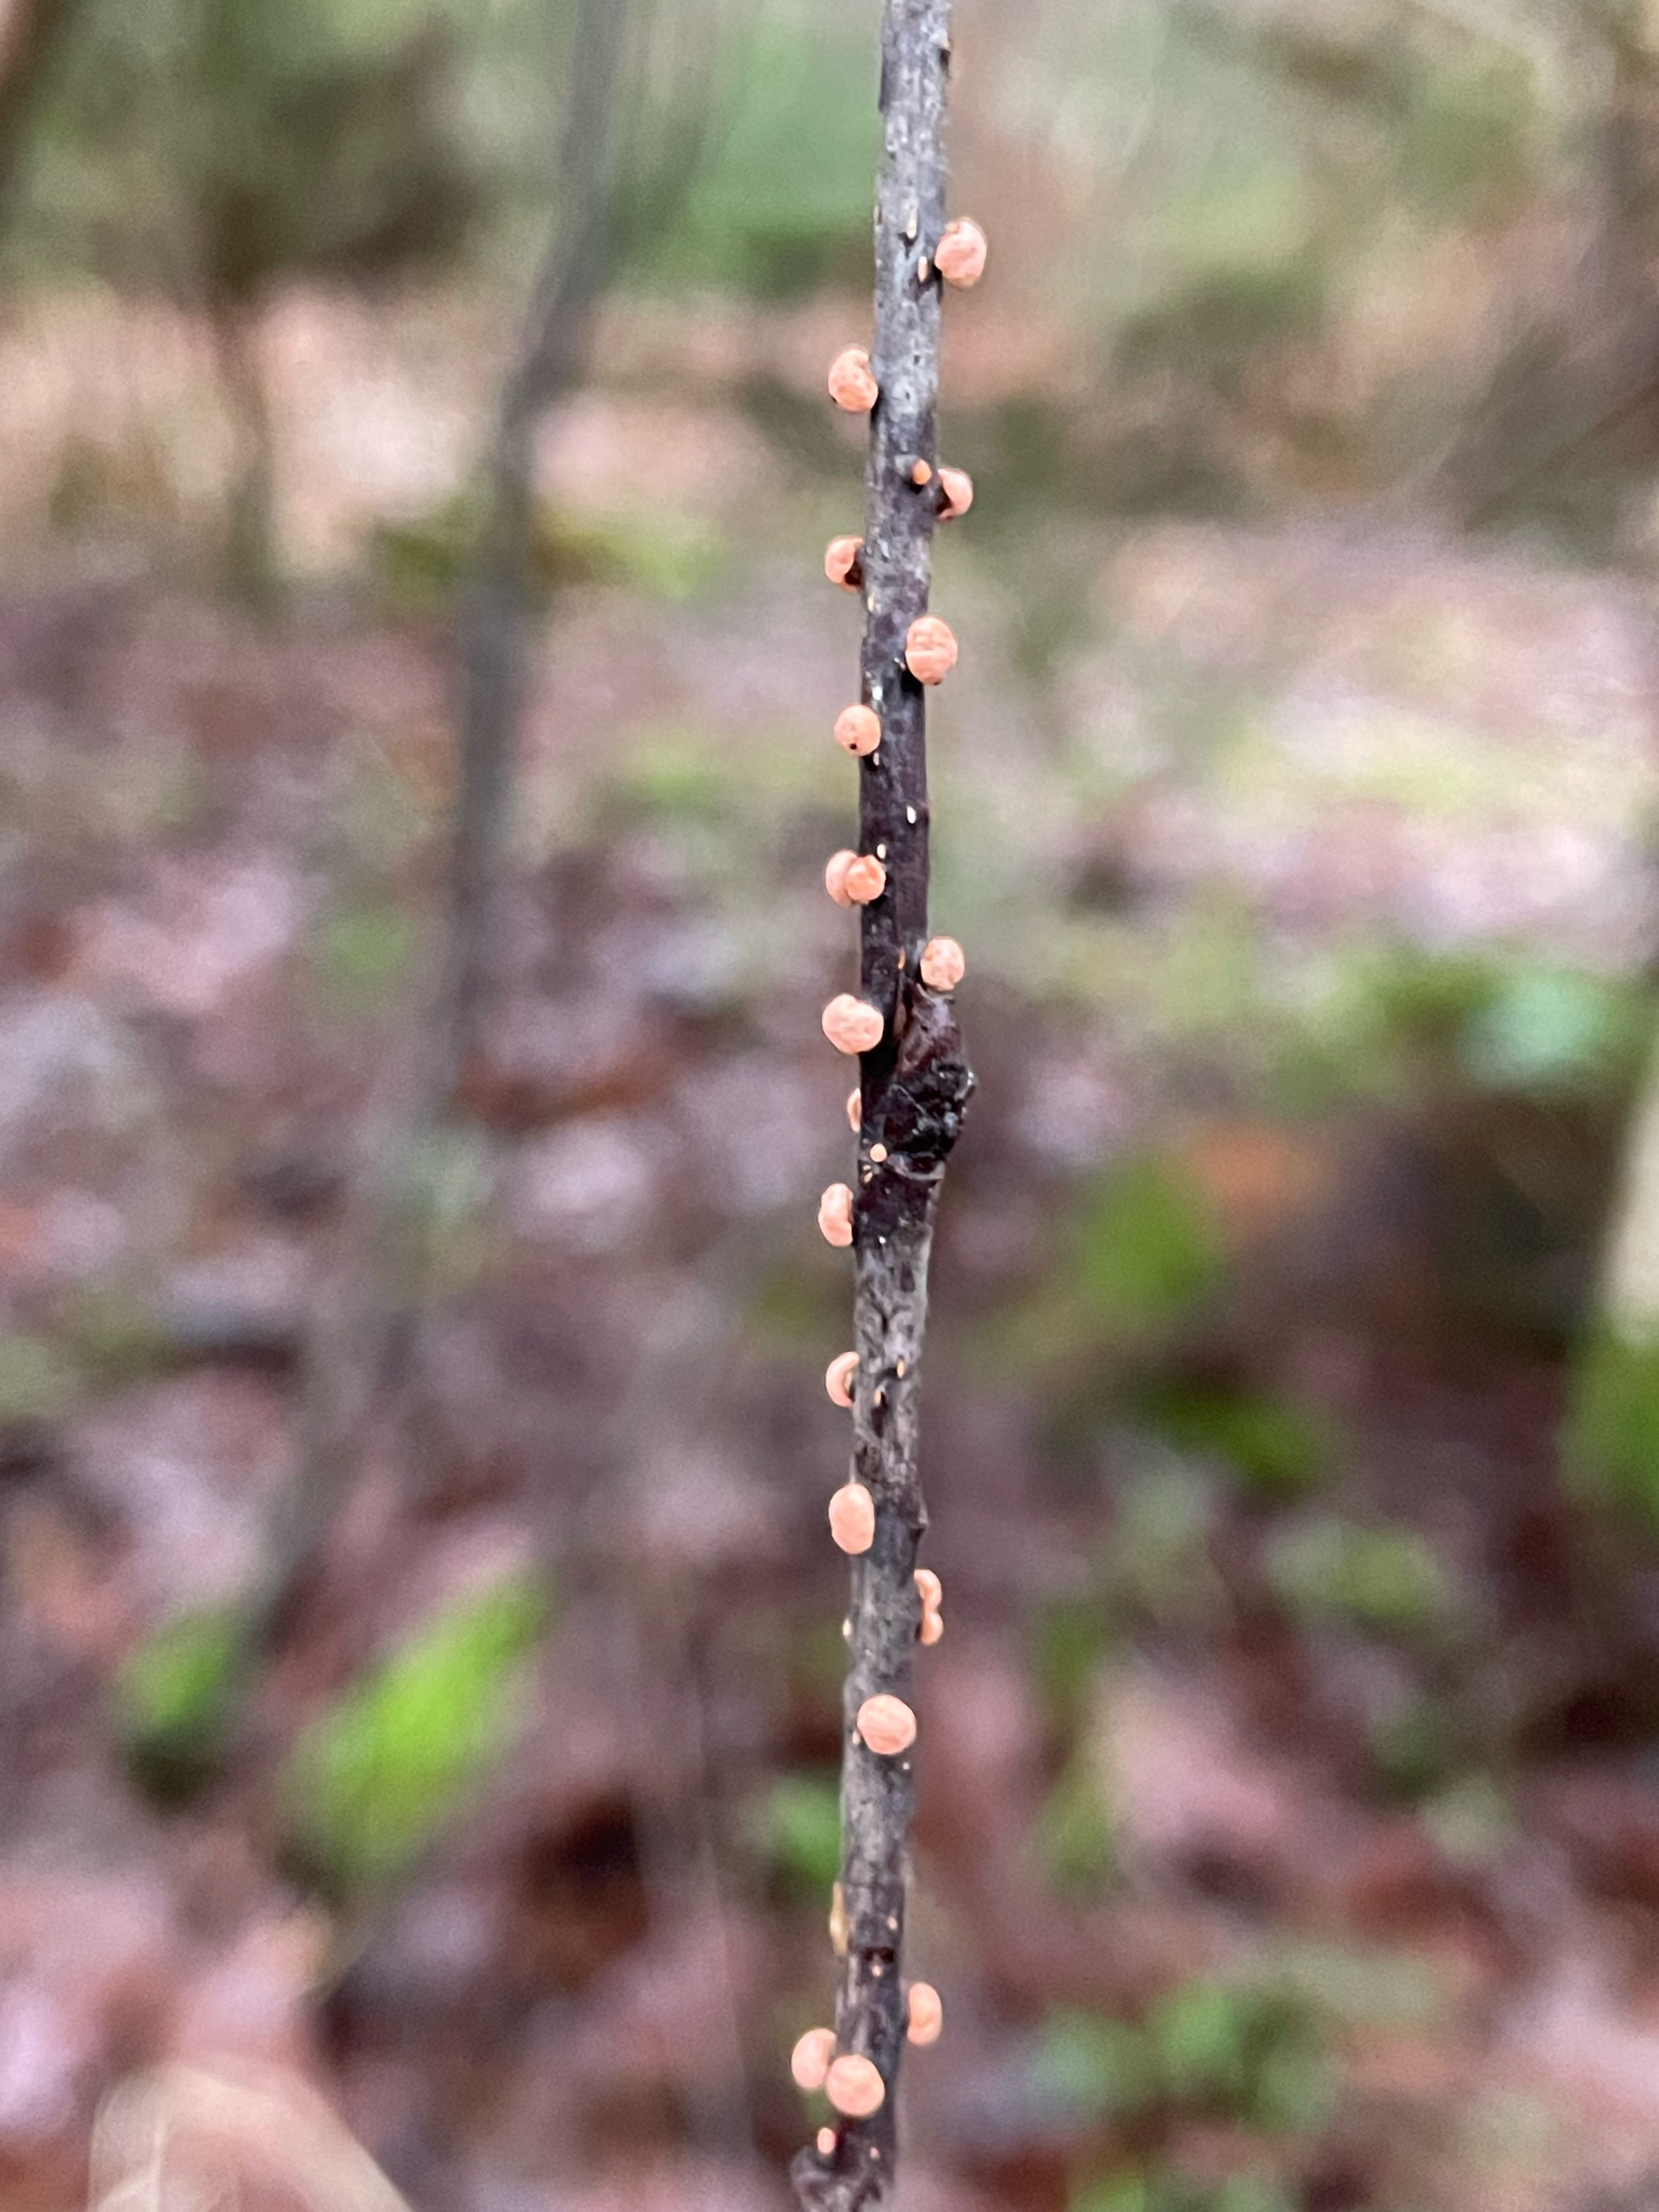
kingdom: Fungi
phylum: Ascomycota
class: Sordariomycetes
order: Hypocreales
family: Nectriaceae
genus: Nectria
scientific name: Nectria cinnabarina
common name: almindelig cinnobersvamp
